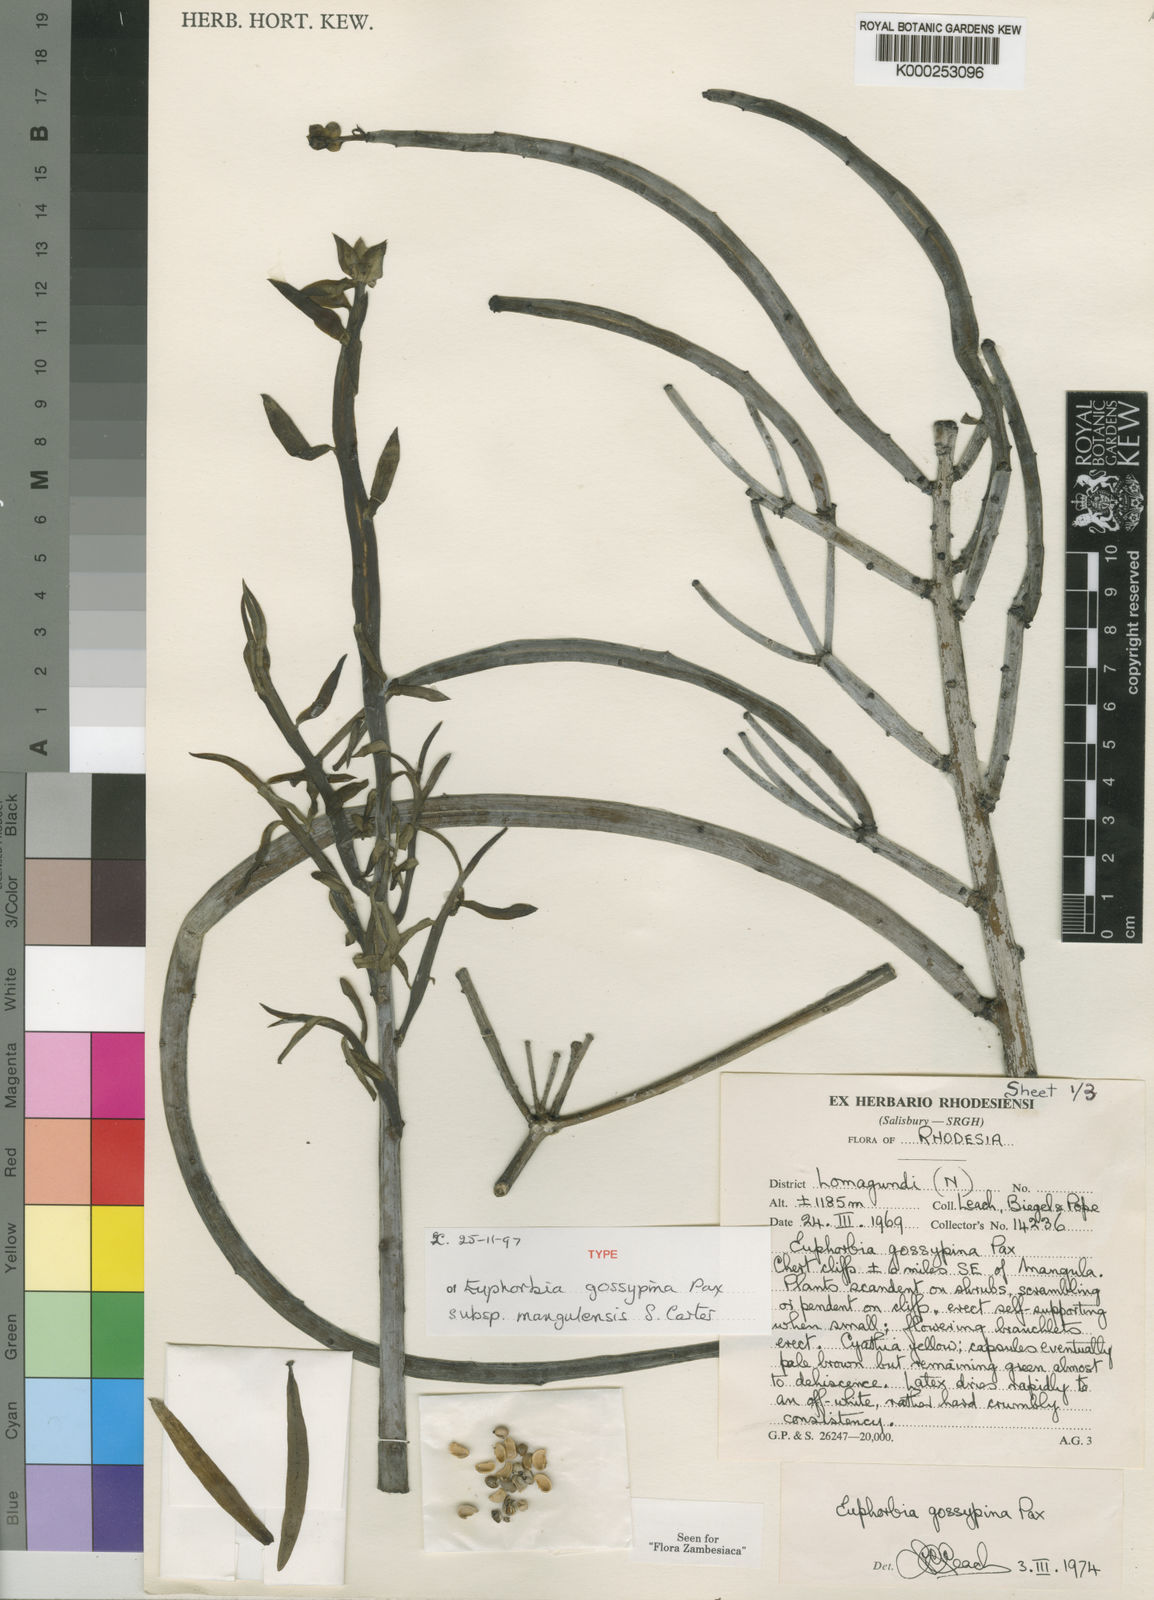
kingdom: Plantae
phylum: Tracheophyta
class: Magnoliopsida
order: Malpighiales
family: Euphorbiaceae
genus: Euphorbia
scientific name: Euphorbia gossypina
